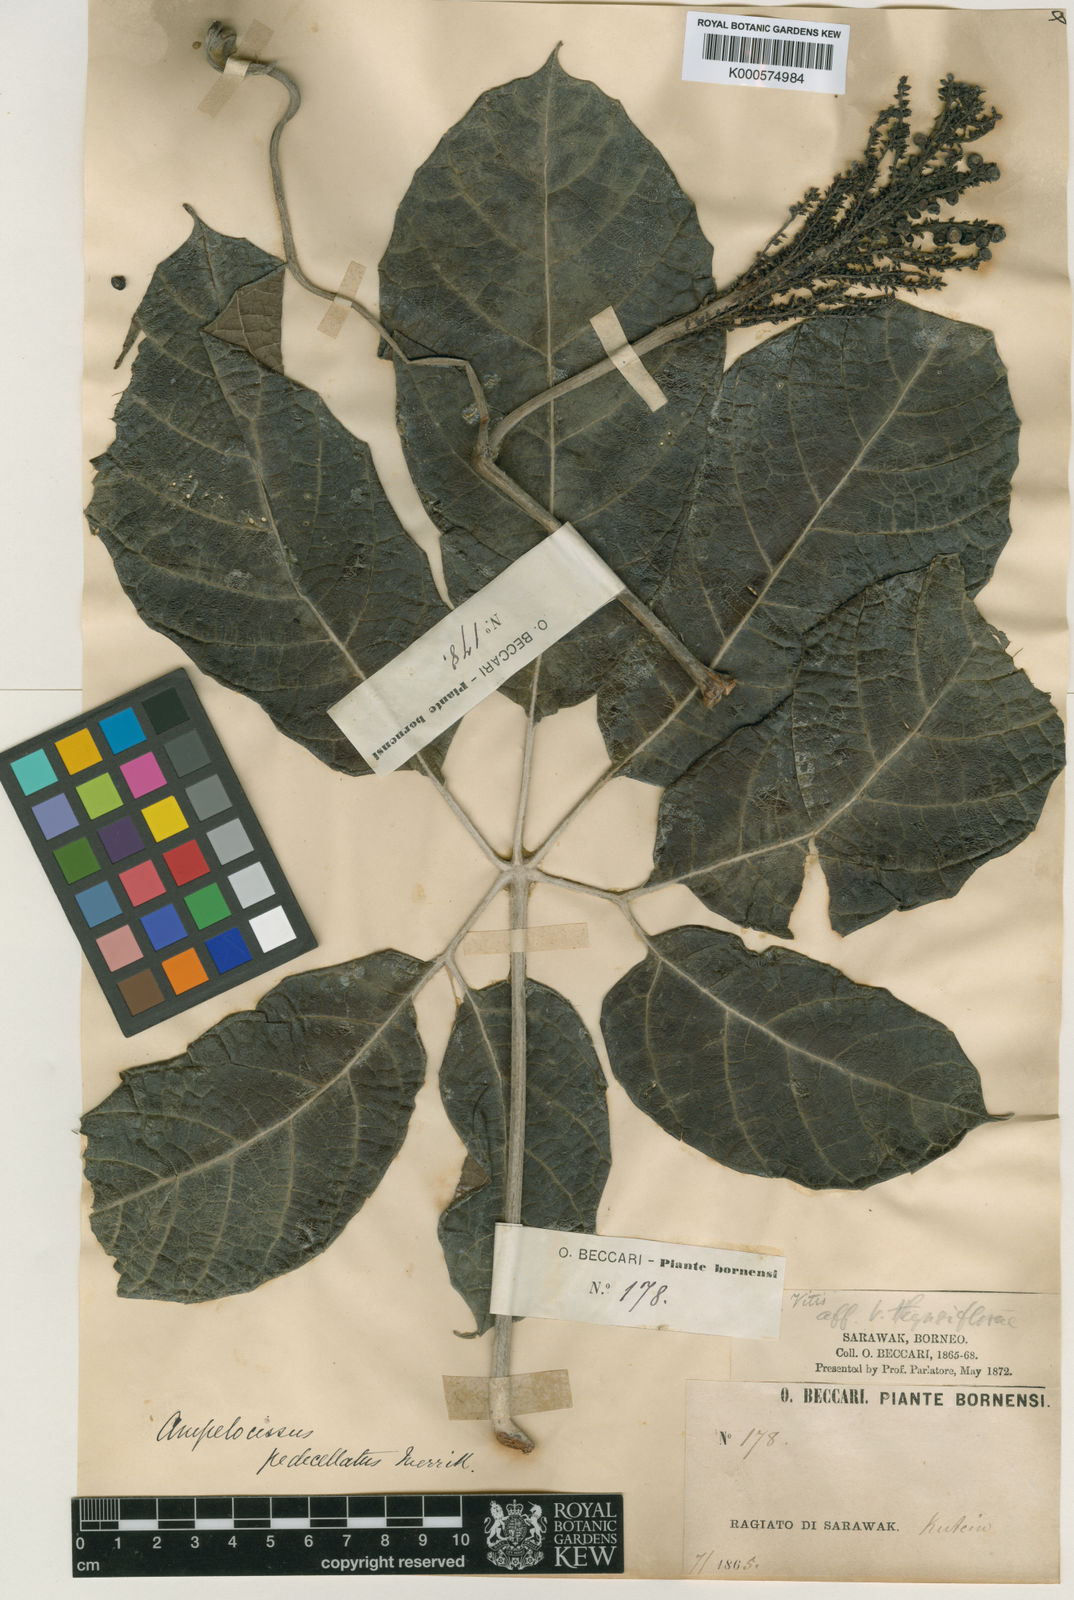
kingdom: Plantae
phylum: Tracheophyta
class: Magnoliopsida
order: Vitales
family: Vitaceae
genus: Ampelocissus
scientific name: Ampelocissus pedicellata
